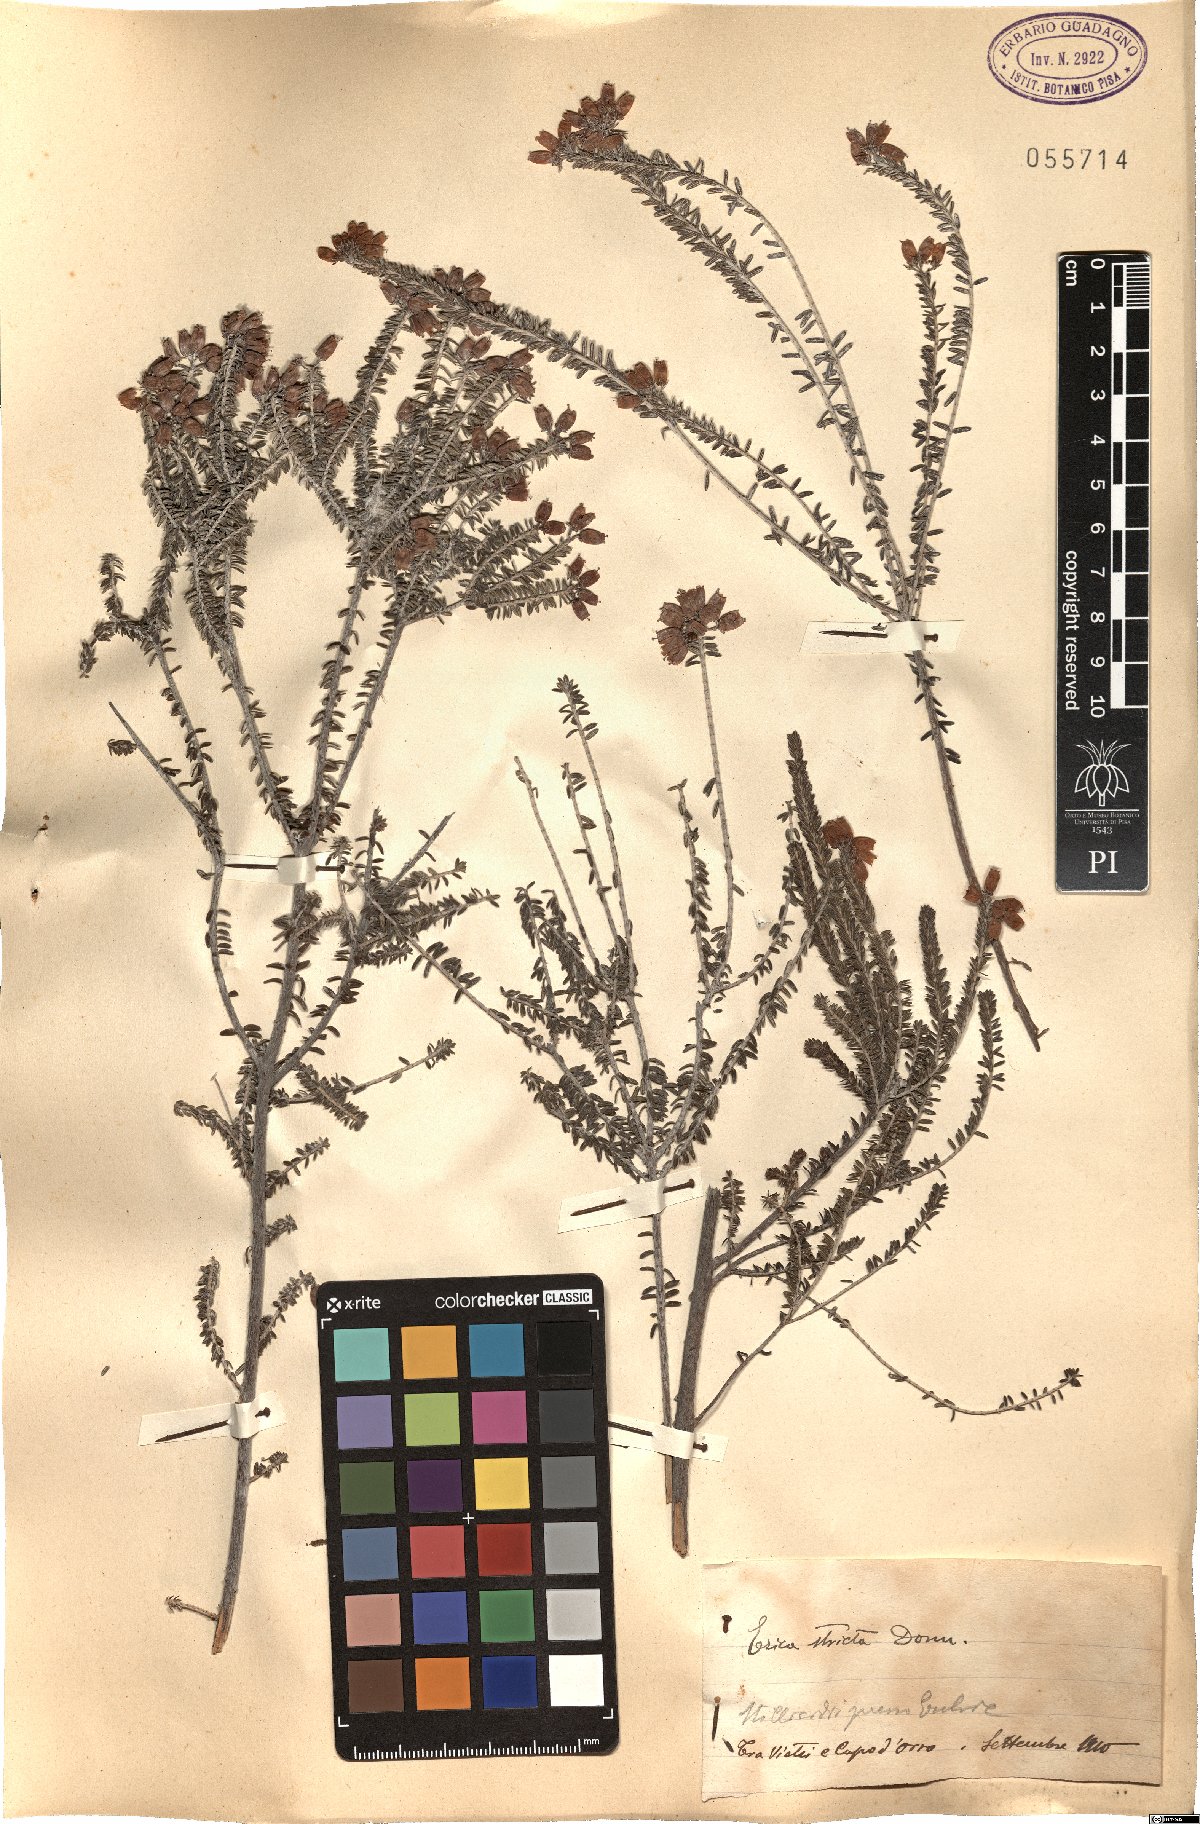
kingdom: Plantae
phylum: Tracheophyta
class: Magnoliopsida
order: Ericales
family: Ericaceae
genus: Erica
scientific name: Erica terminalis
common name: Corsican heath
